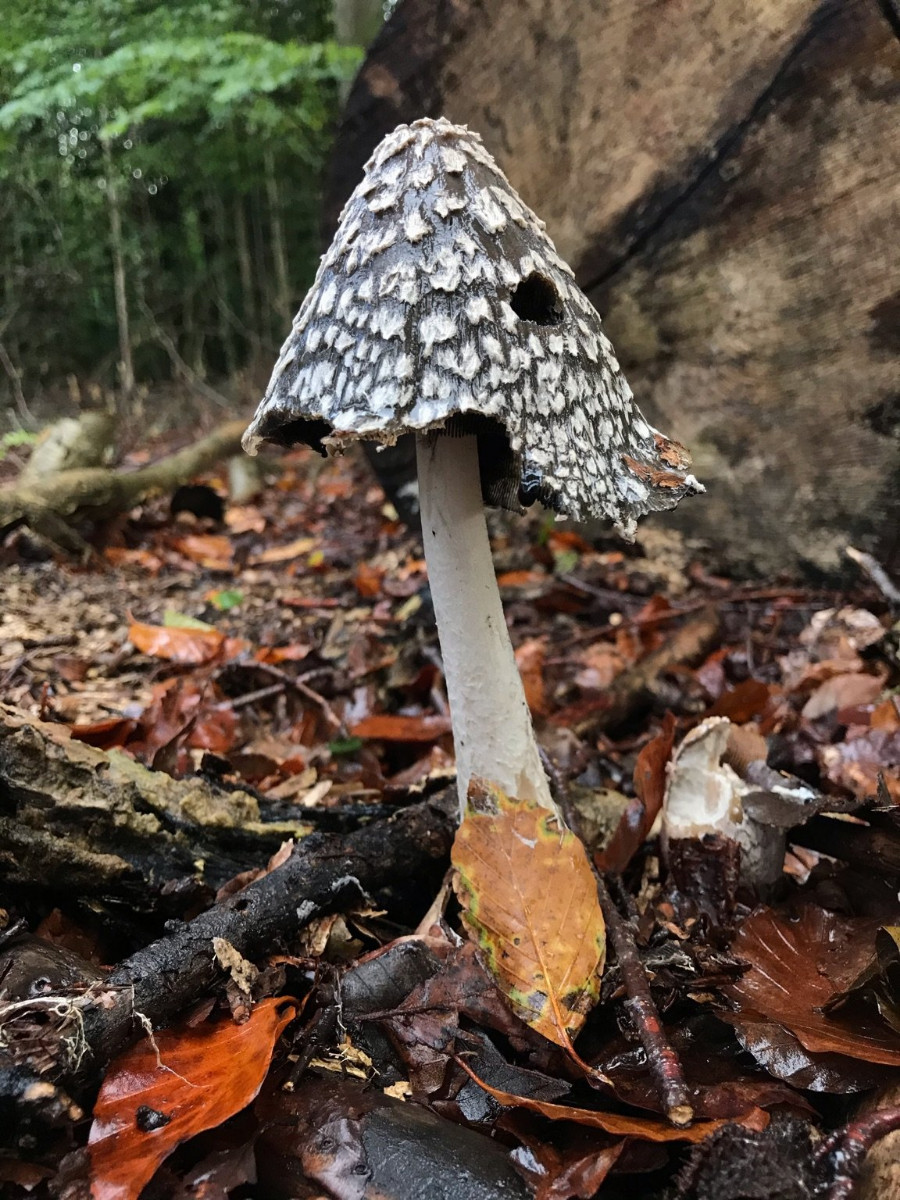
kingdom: Fungi
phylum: Basidiomycota
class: Agaricomycetes
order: Agaricales
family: Psathyrellaceae
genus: Coprinopsis
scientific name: Coprinopsis picacea
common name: skade-blækhat
